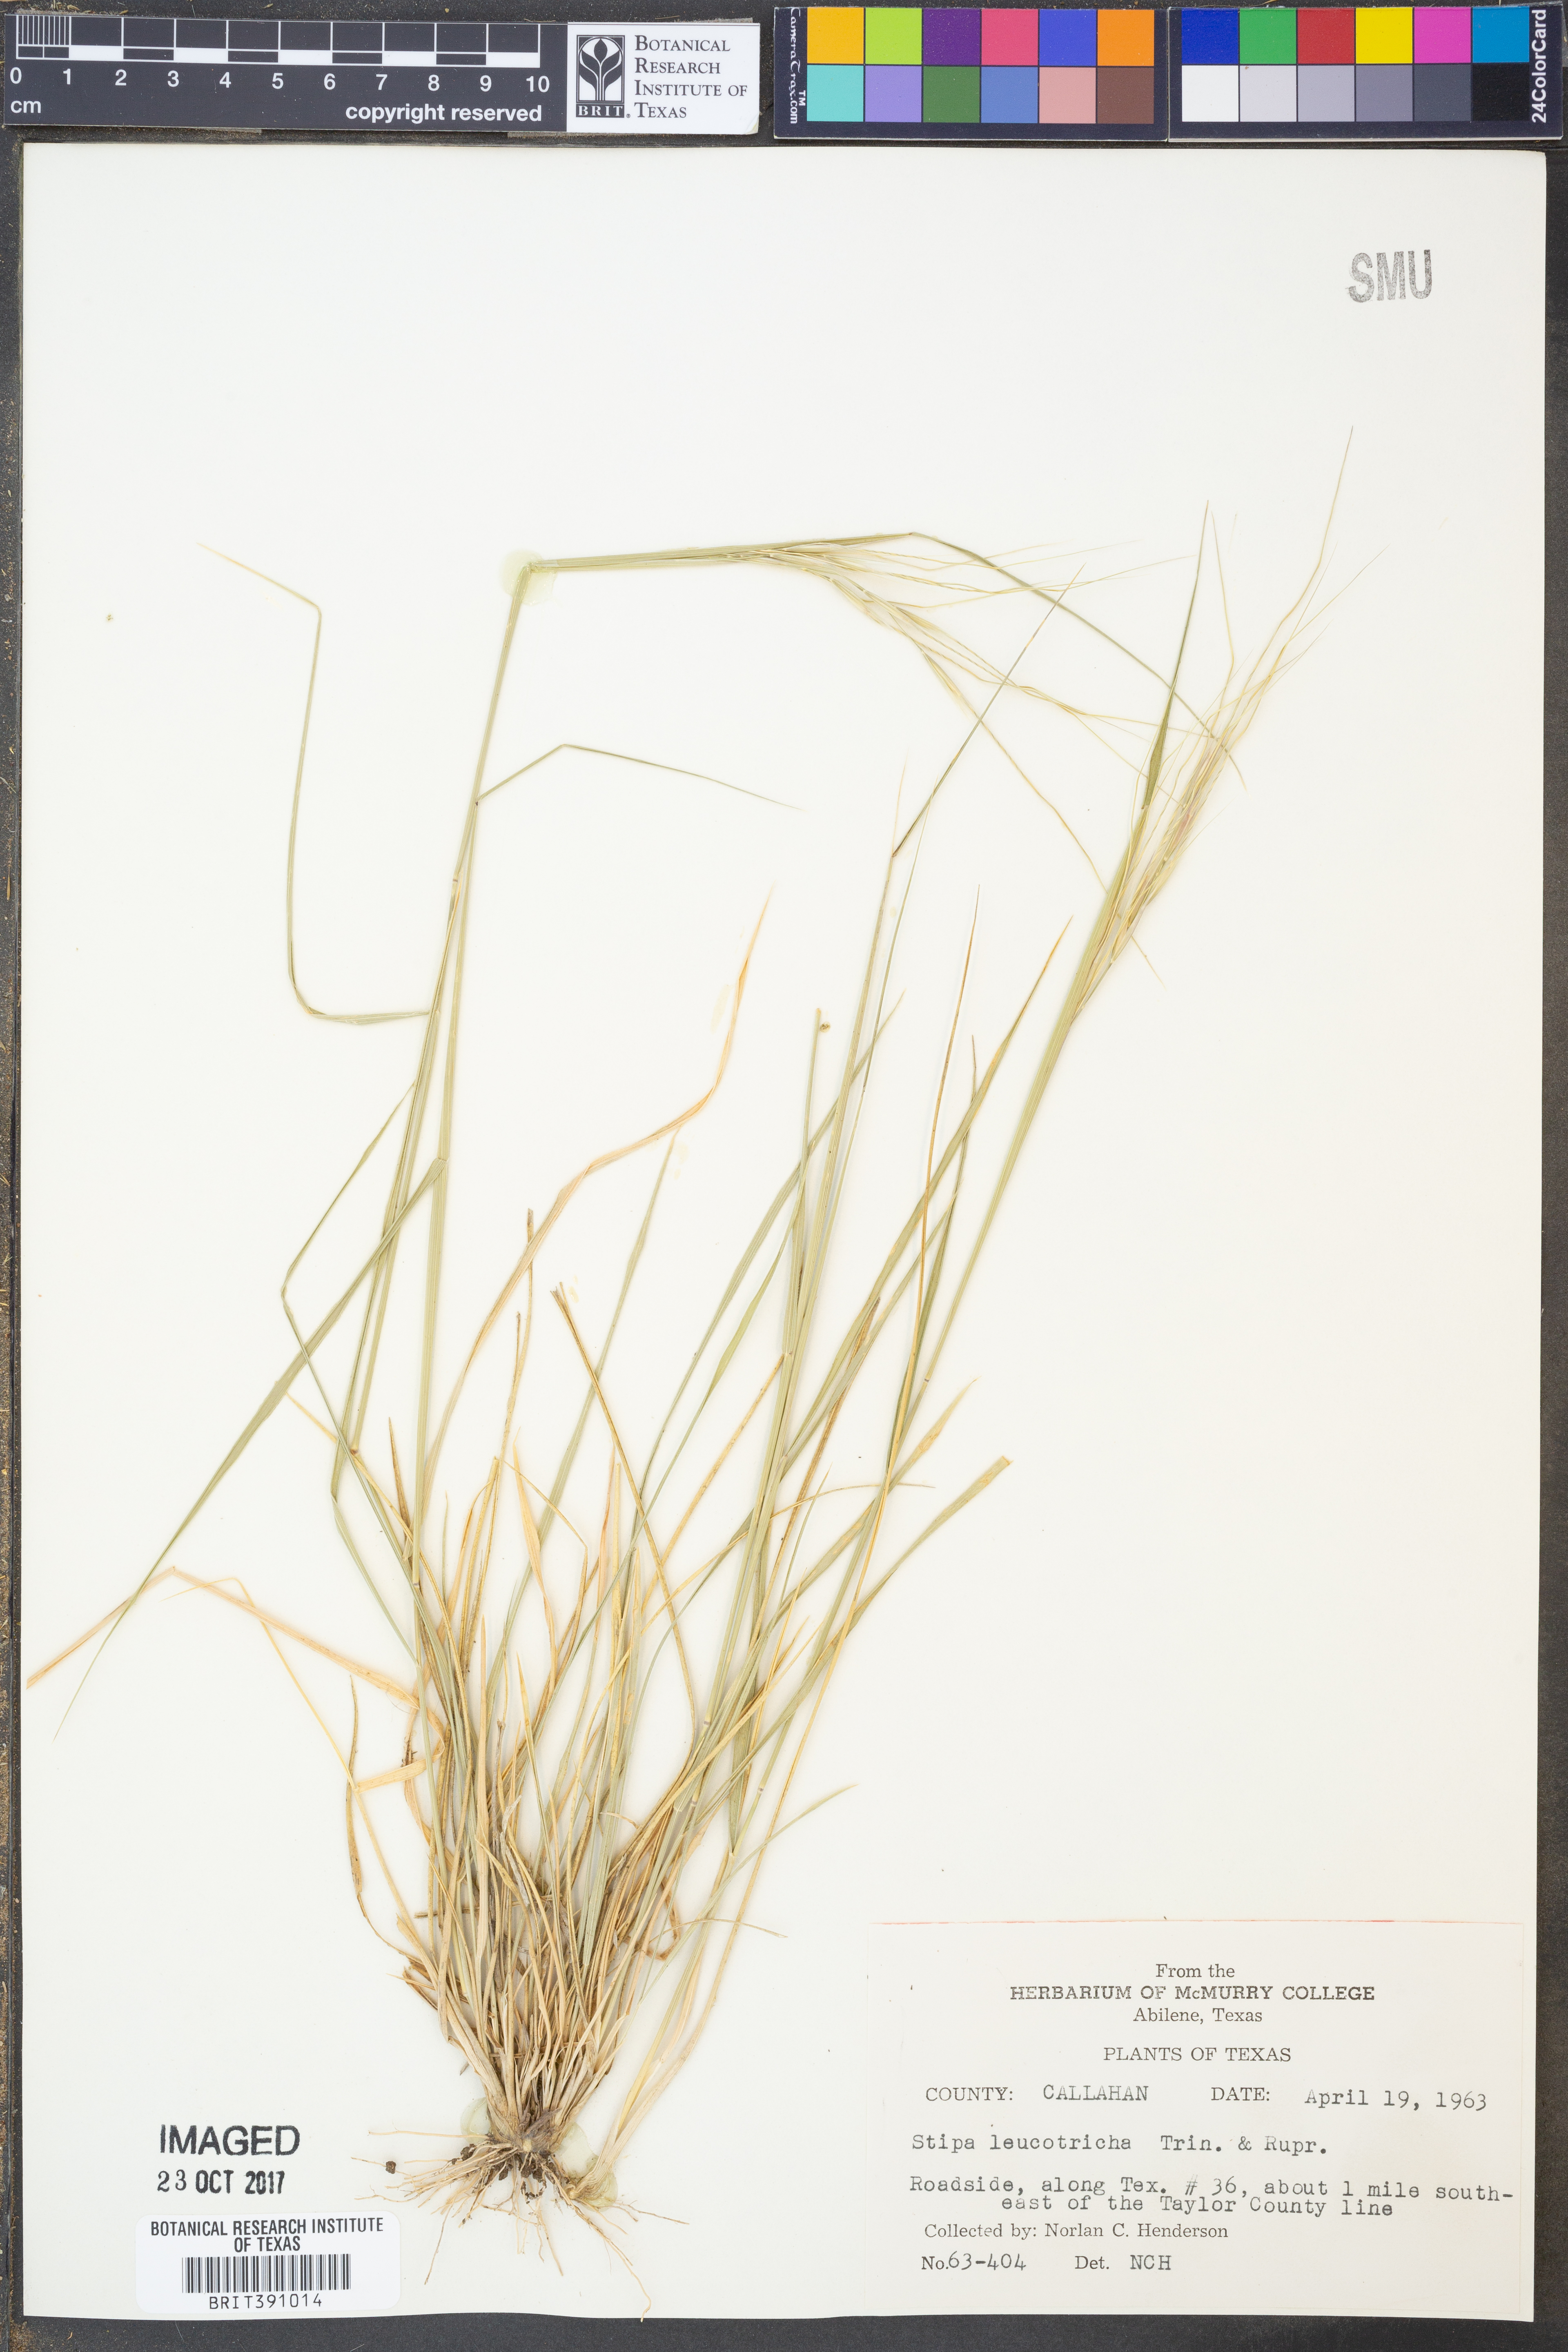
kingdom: Plantae
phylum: Tracheophyta
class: Liliopsida
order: Poales
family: Poaceae
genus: Nassella
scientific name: Nassella leucotricha
